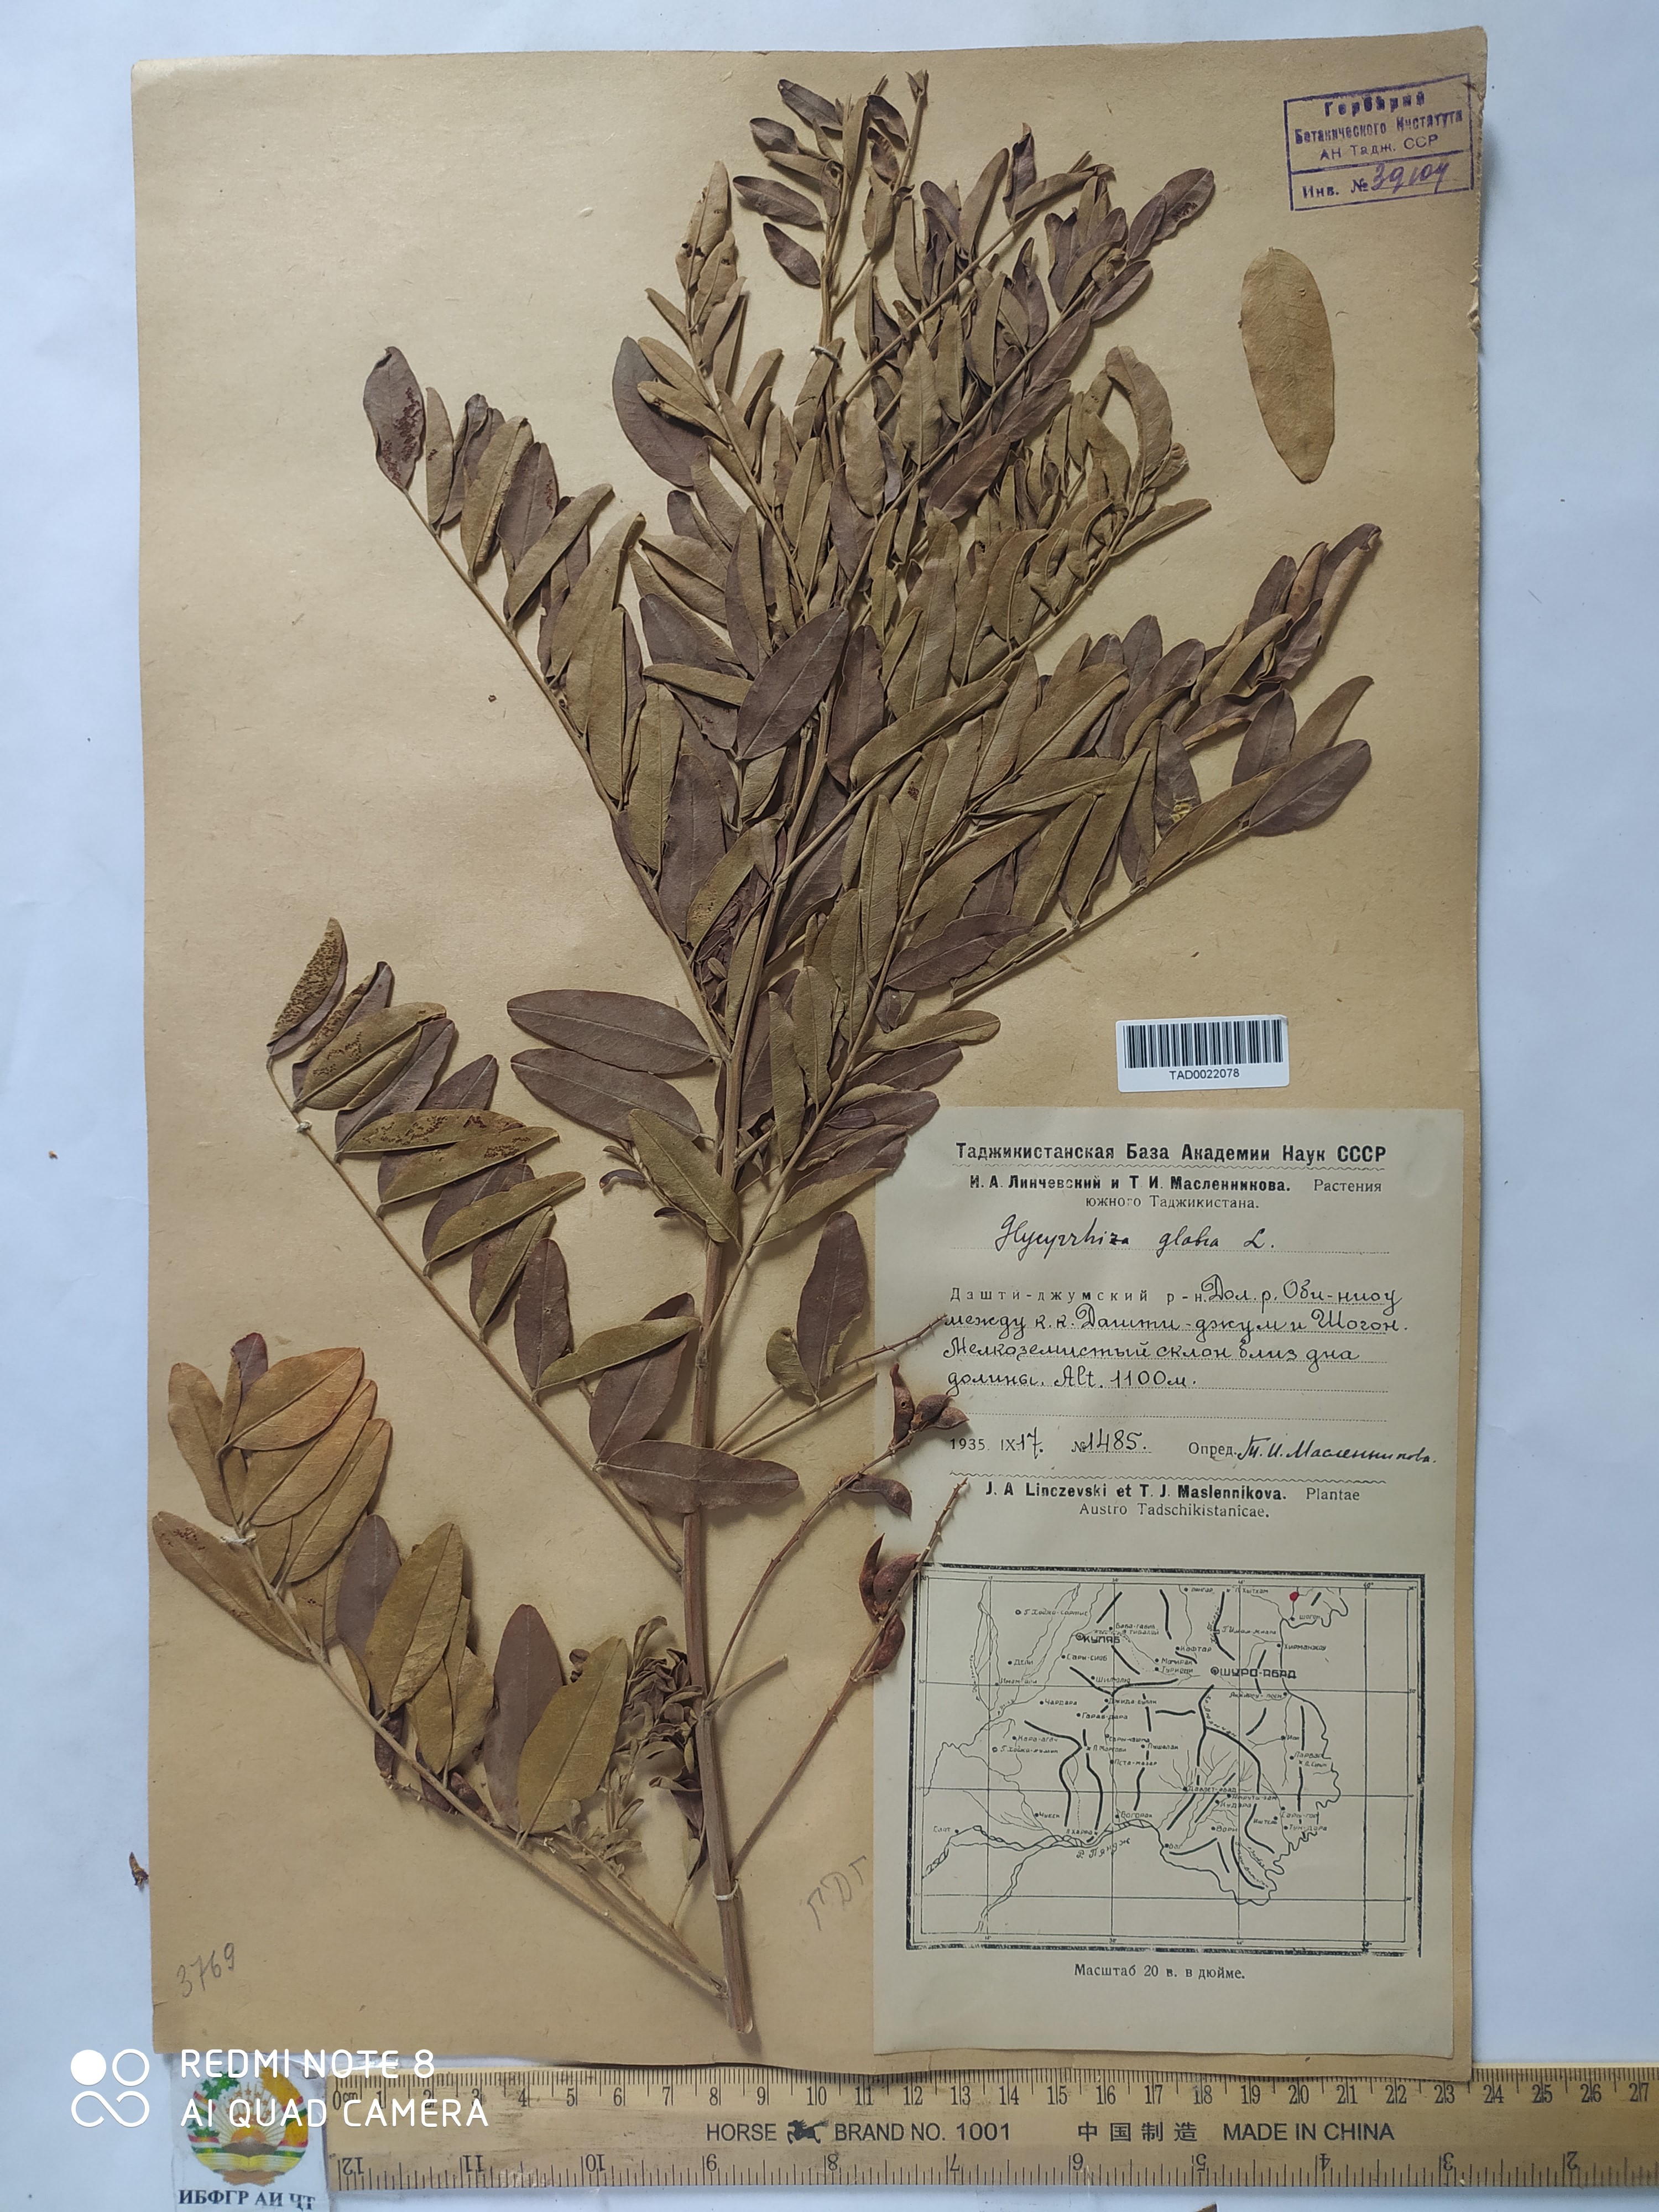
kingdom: Plantae
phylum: Tracheophyta
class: Magnoliopsida
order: Fabales
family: Fabaceae
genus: Glycyrrhiza
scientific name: Glycyrrhiza glabra
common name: Liquorice
